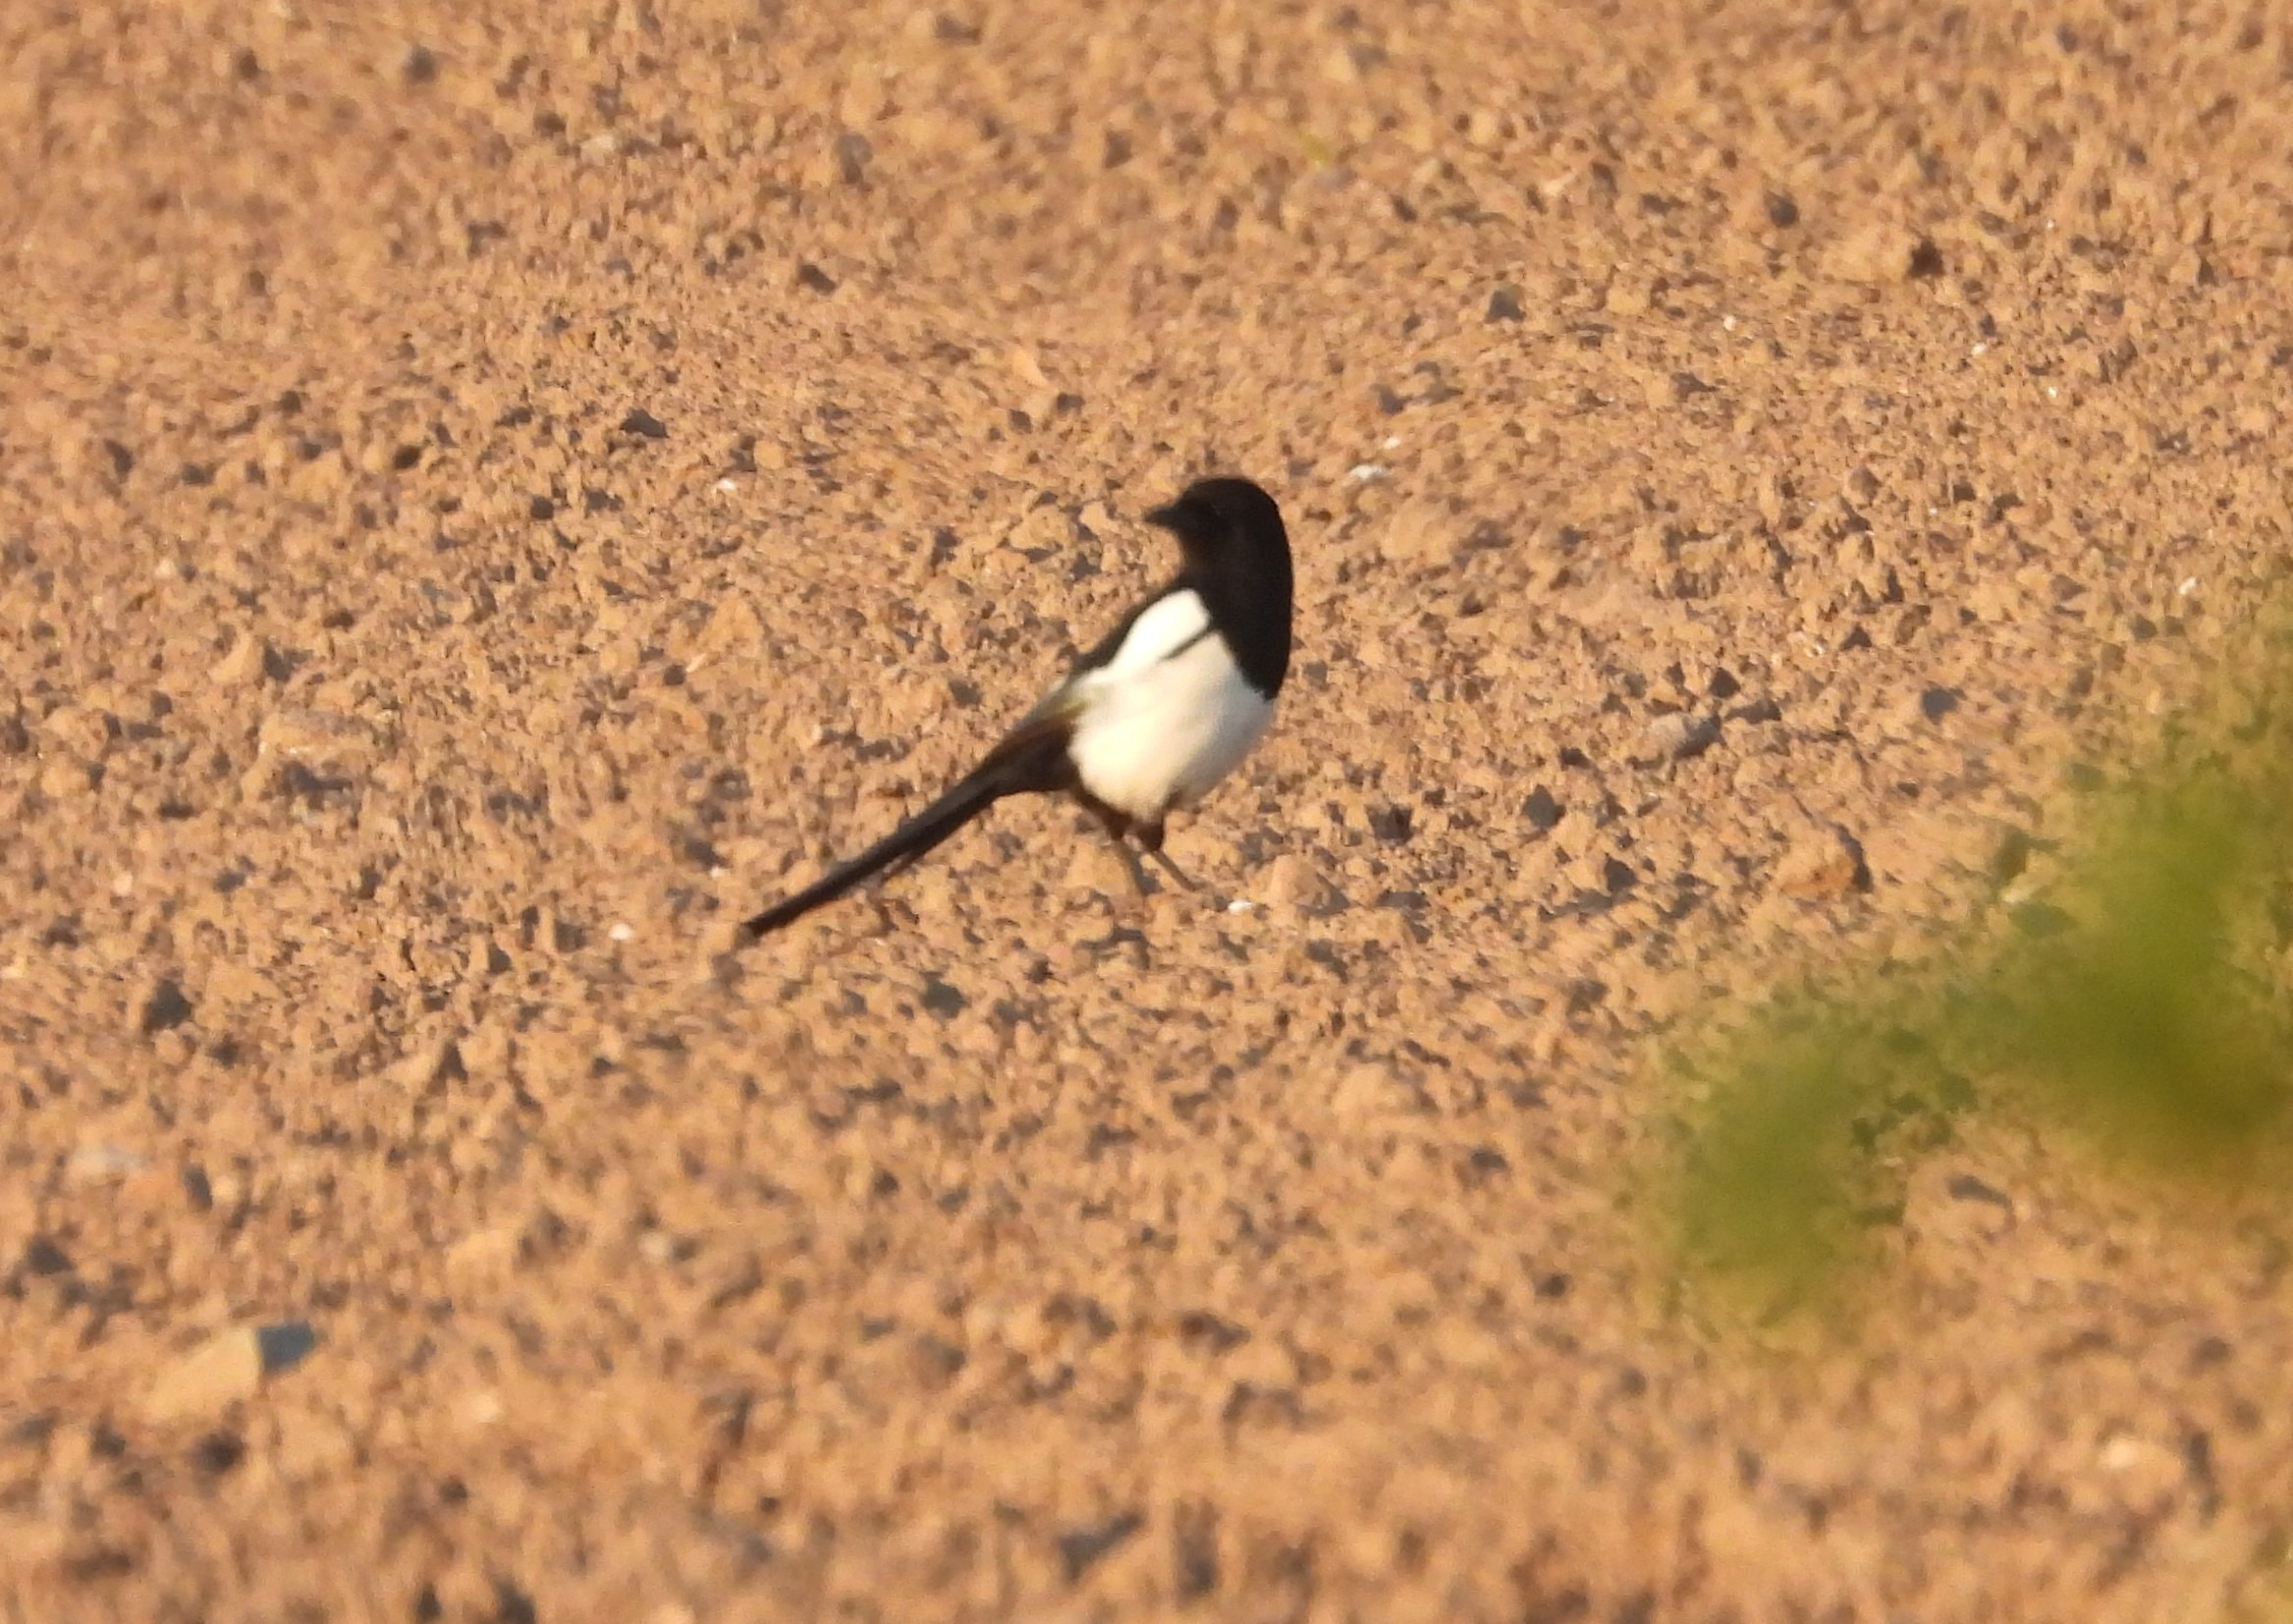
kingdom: Animalia
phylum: Chordata
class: Aves
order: Passeriformes
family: Corvidae
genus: Pica
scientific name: Pica pica
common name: Husskade
